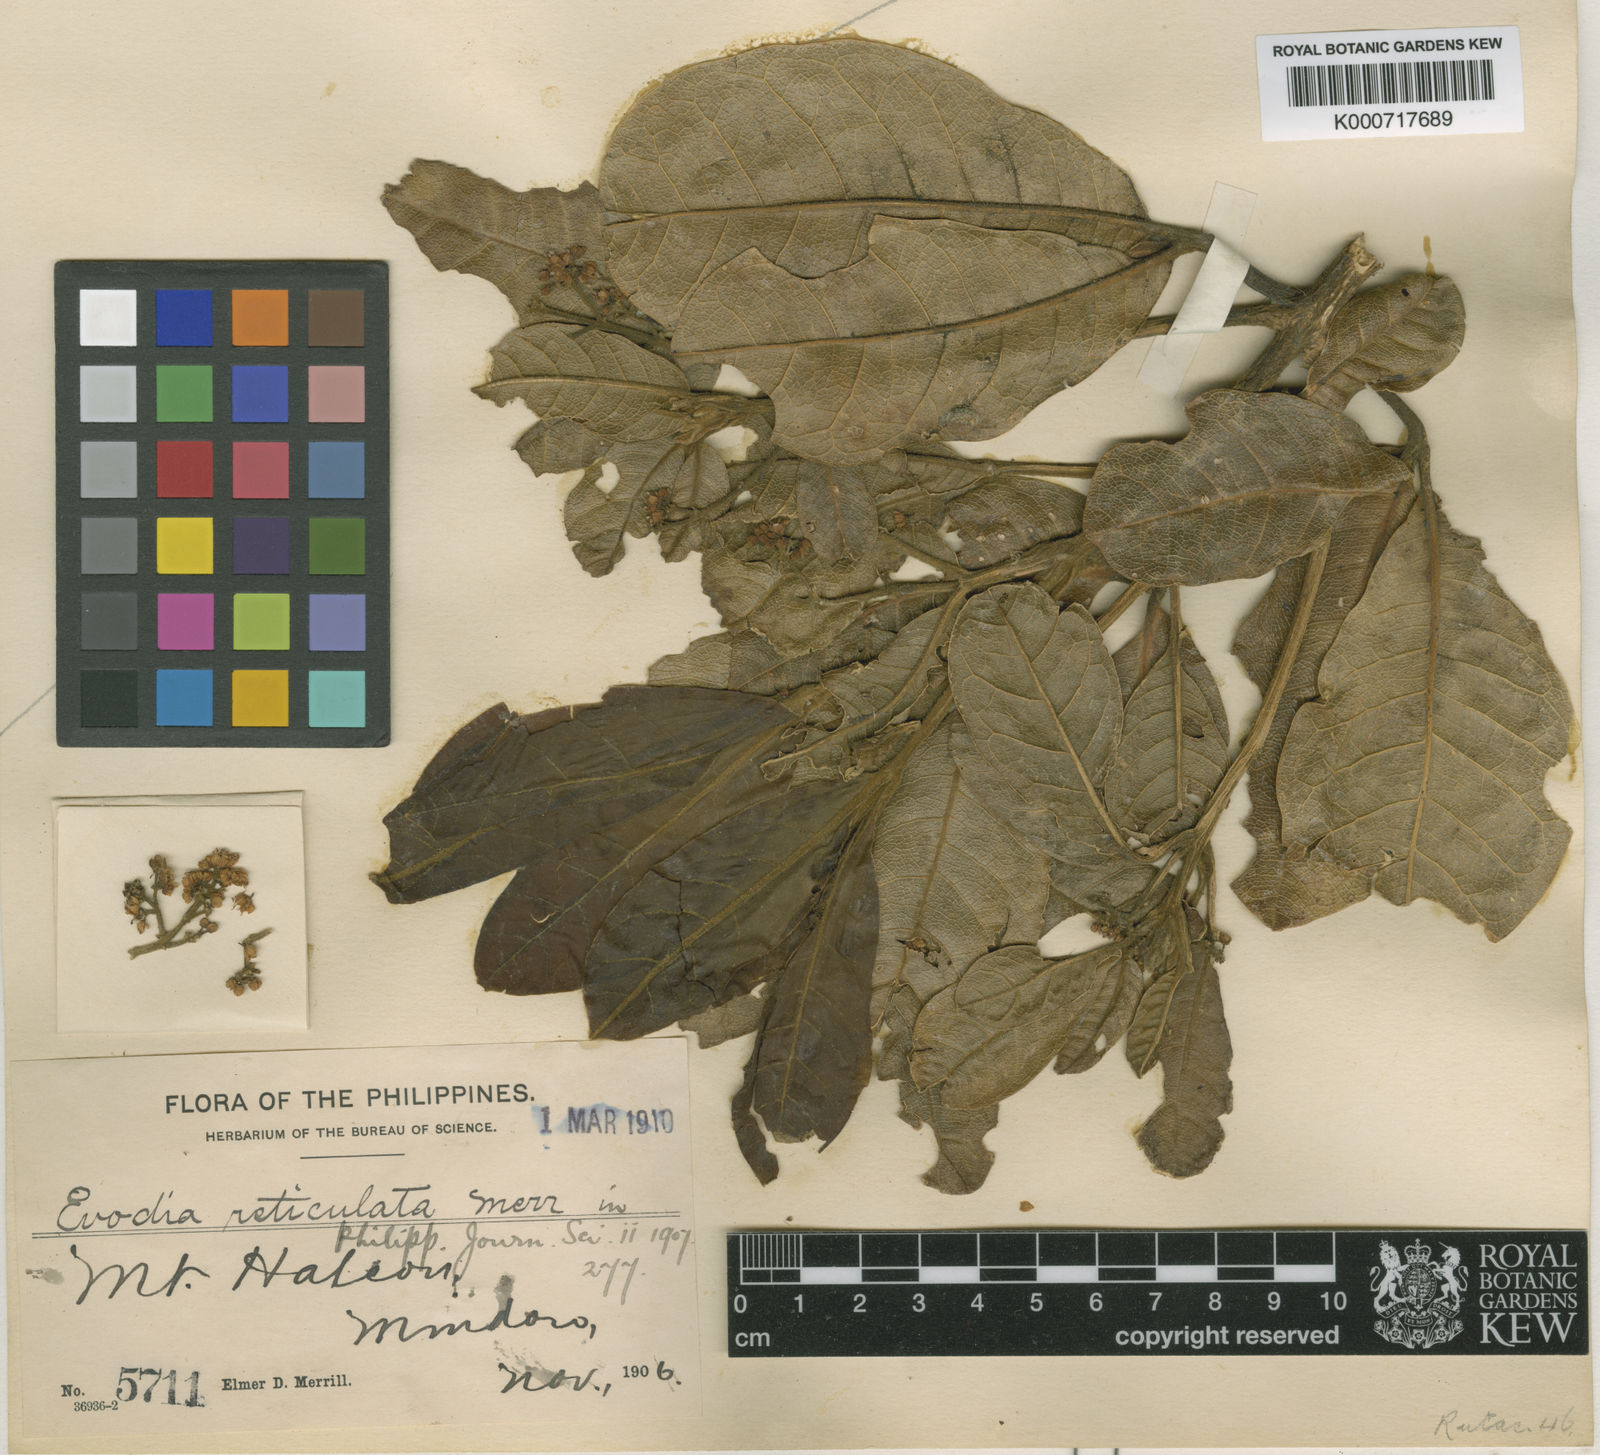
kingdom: Plantae
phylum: Tracheophyta
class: Magnoliopsida
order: Sapindales
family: Rutaceae
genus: Melicope
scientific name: Melicope pergamentacea
